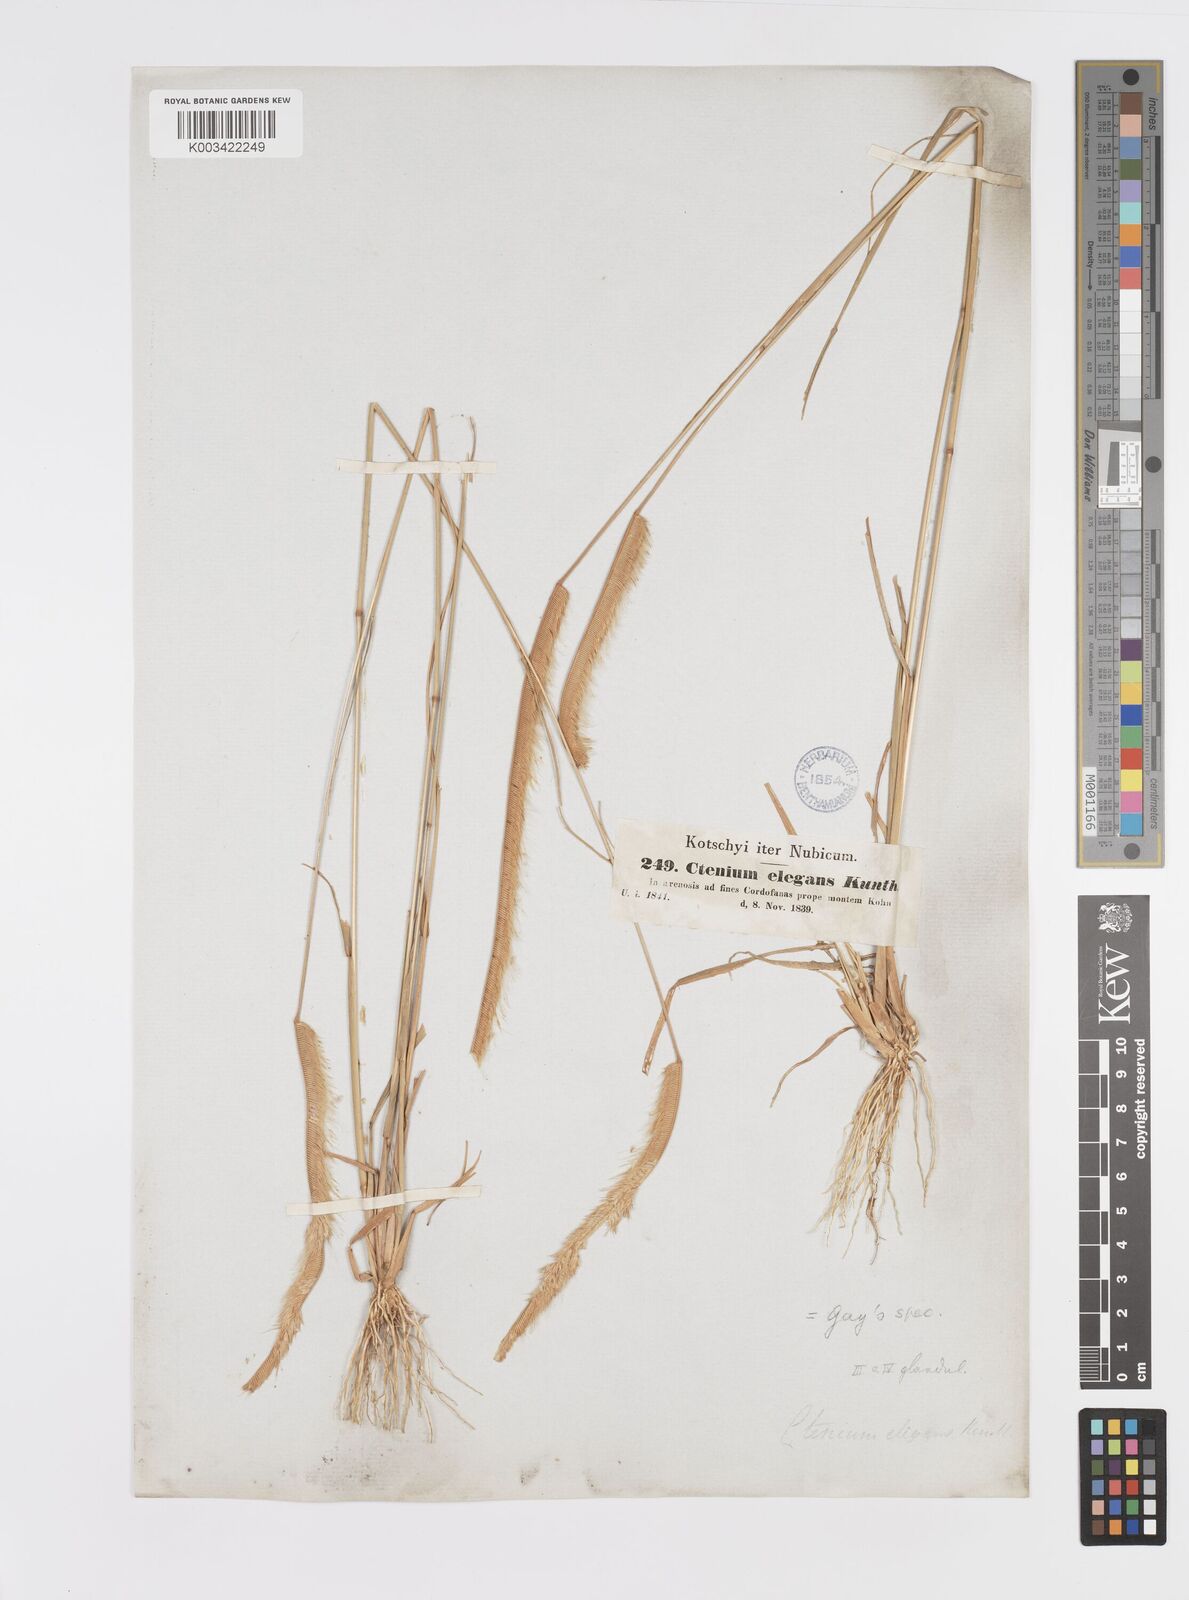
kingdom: Plantae
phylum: Tracheophyta
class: Liliopsida
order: Poales
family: Poaceae
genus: Ctenium
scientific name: Ctenium elegans
